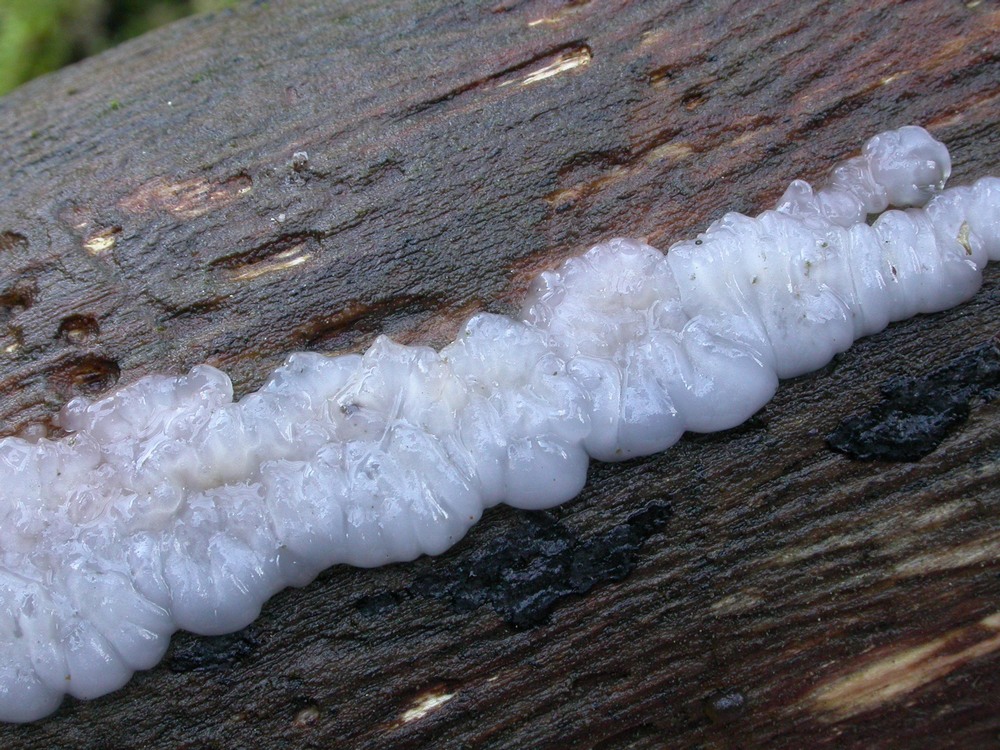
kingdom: Fungi
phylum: Basidiomycota
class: Agaricomycetes
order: Auriculariales
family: Auriculariaceae
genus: Exidia
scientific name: Exidia thuretiana
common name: hvidlig bævretop
